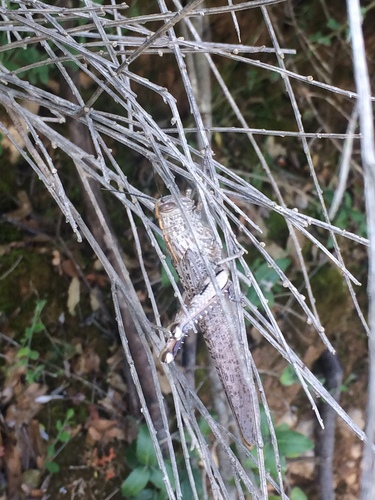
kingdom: Animalia
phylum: Arthropoda
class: Insecta
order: Orthoptera
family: Acrididae
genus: Anacridium
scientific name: Anacridium aegyptium
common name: Egyptian grasshopper
